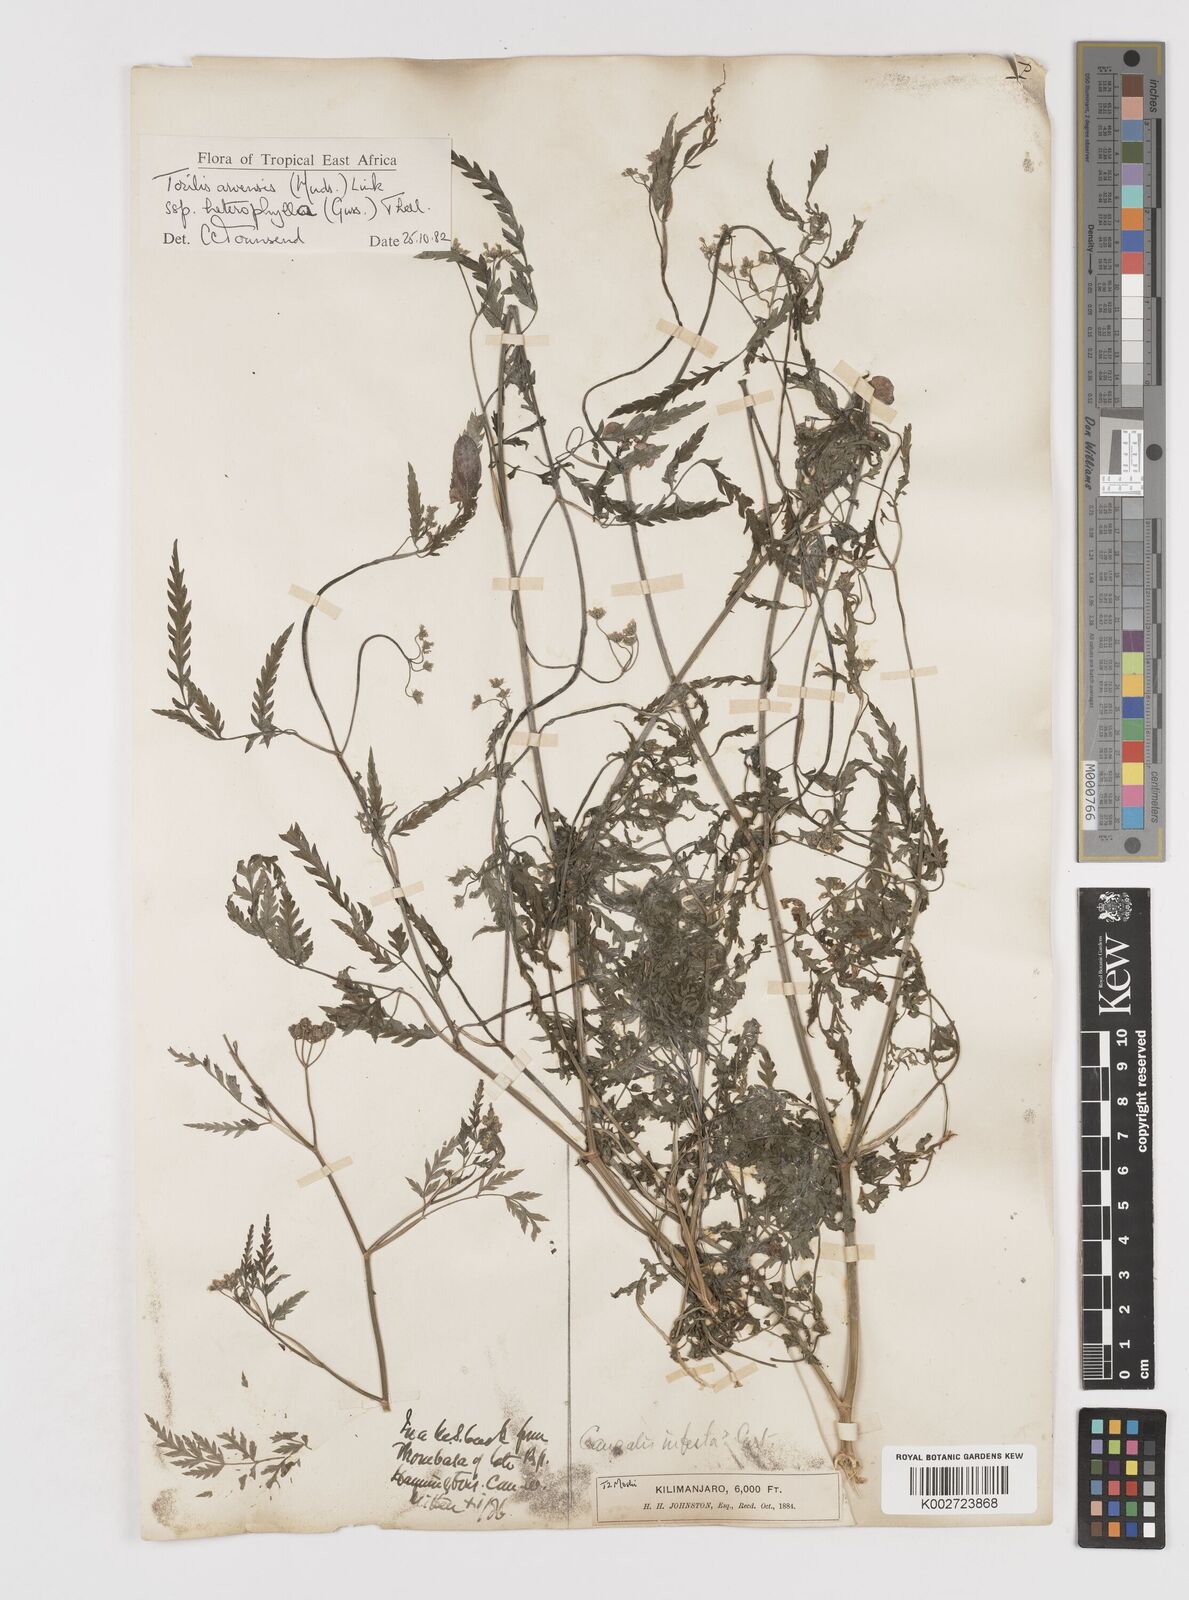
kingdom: Plantae
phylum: Tracheophyta
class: Magnoliopsida
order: Apiales
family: Apiaceae
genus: Torilis
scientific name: Torilis arvensis
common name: Spreading hedge-parsley
